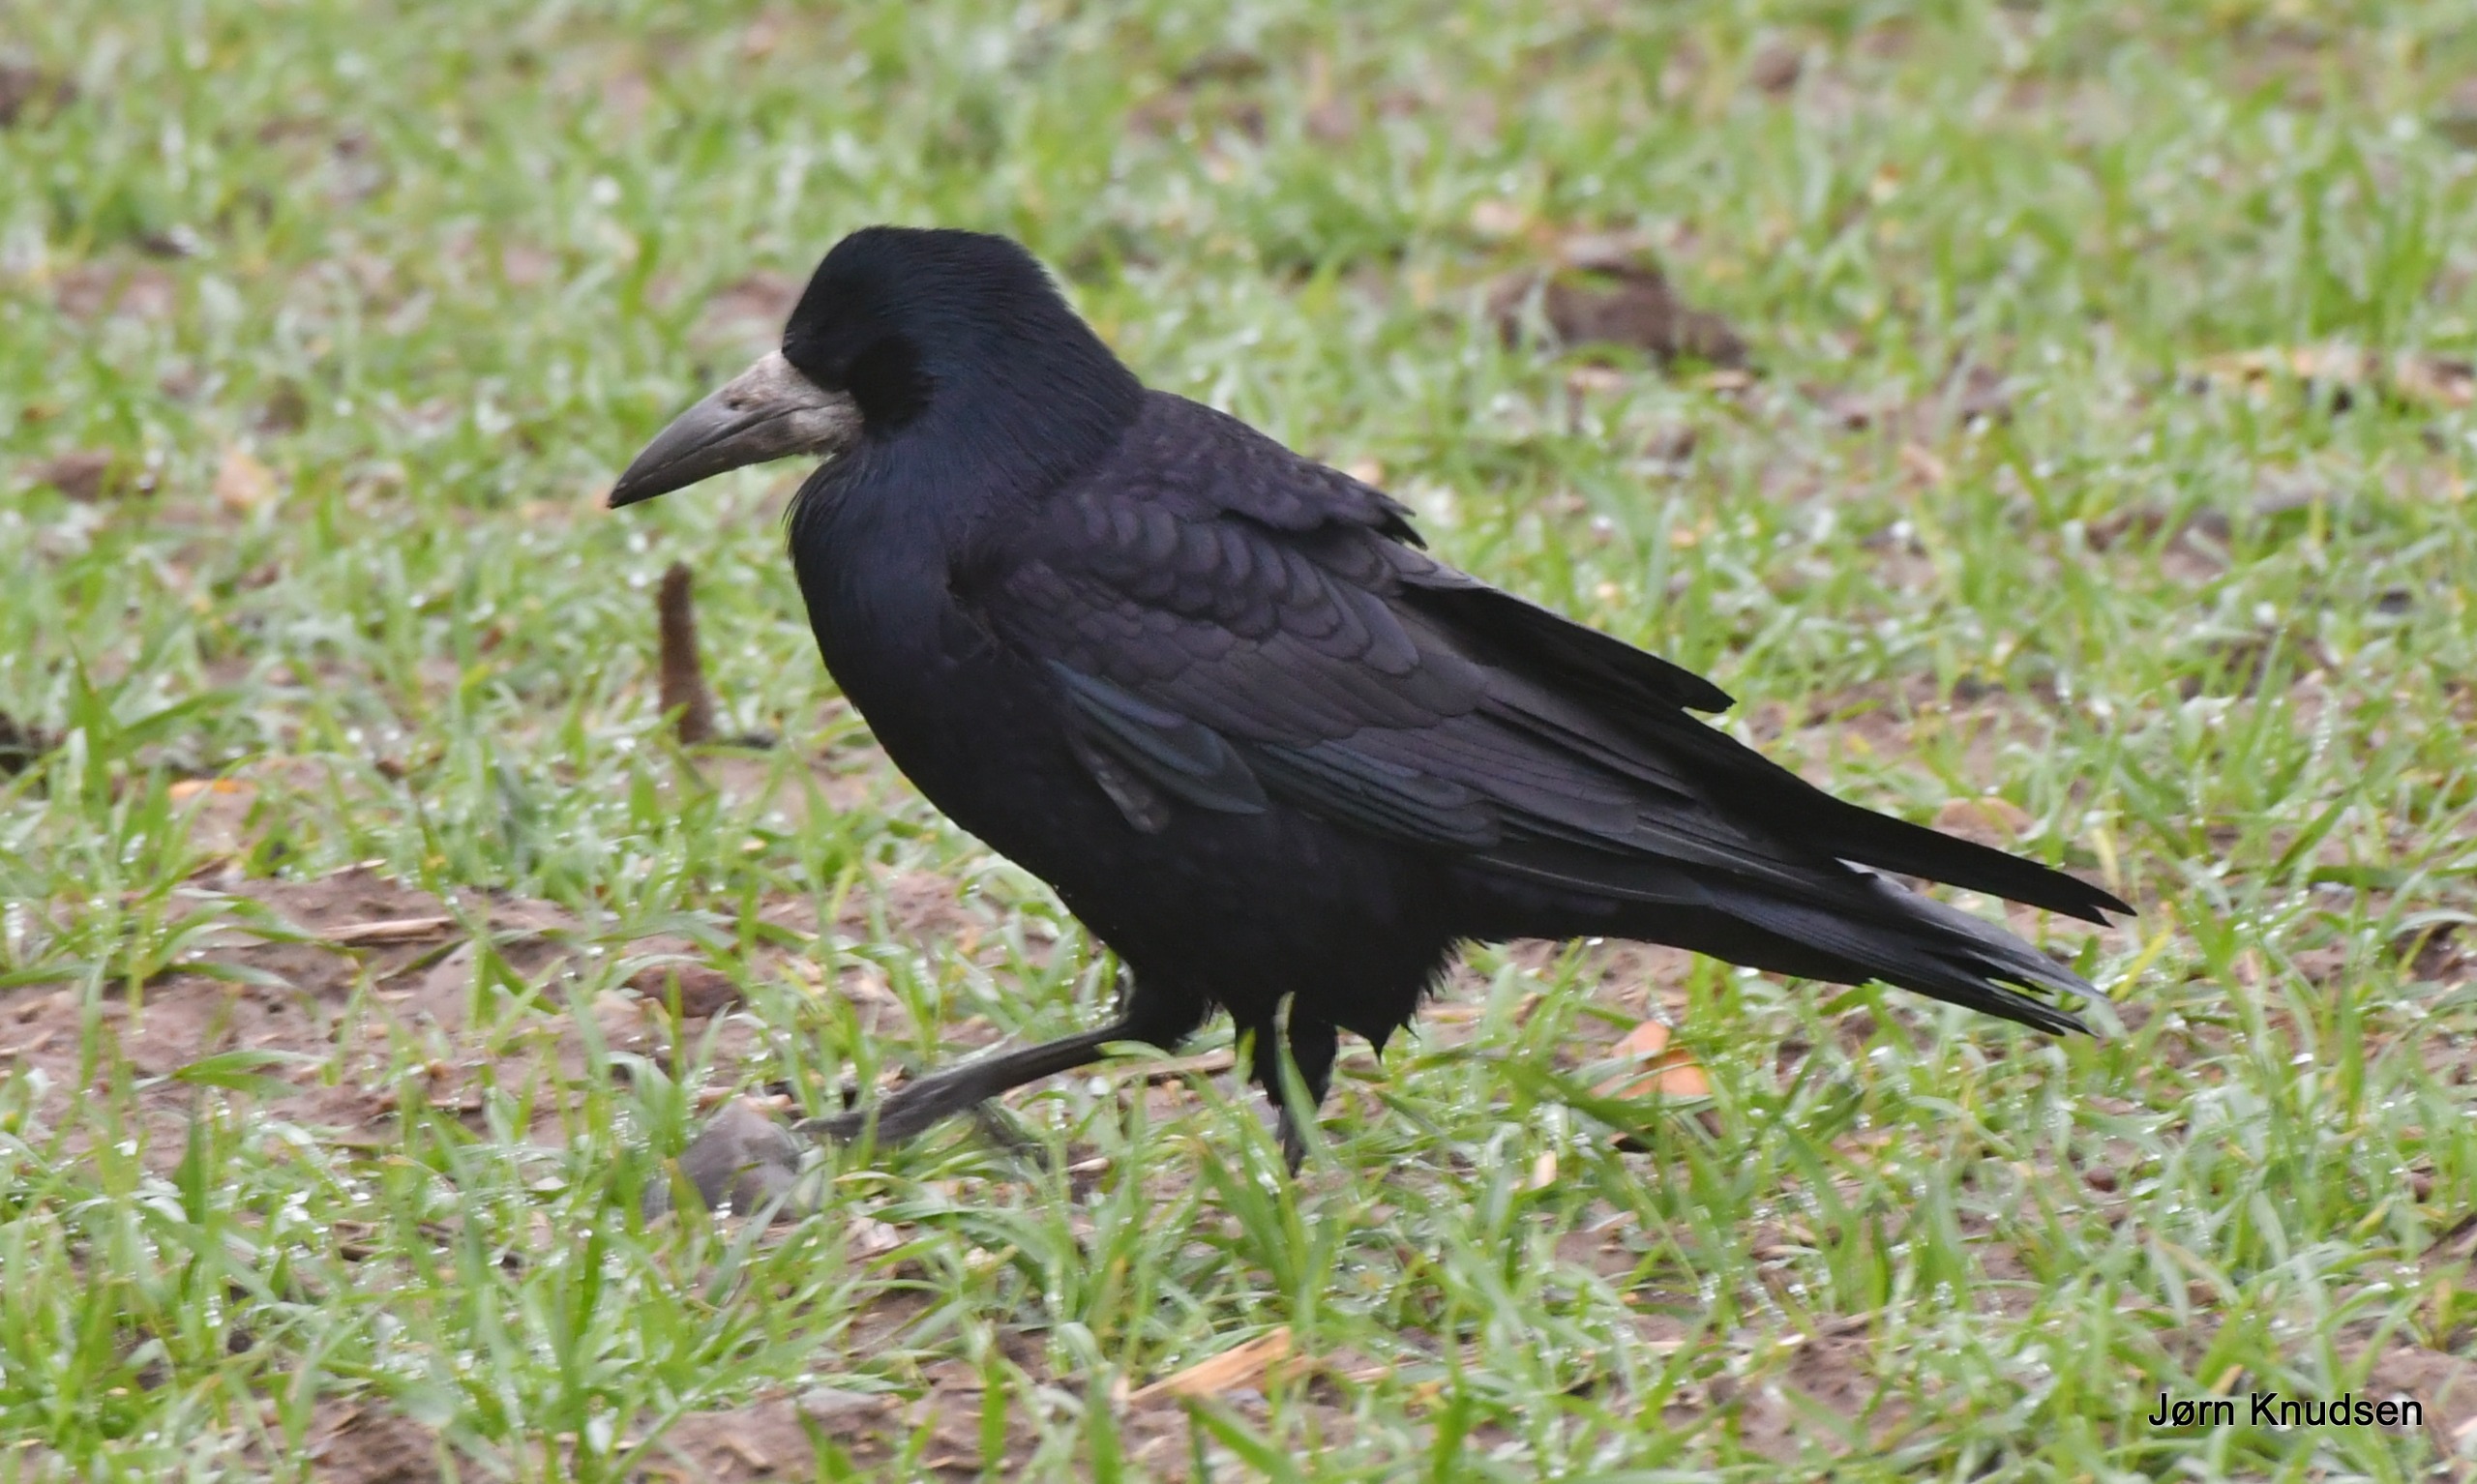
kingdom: Animalia
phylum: Chordata
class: Aves
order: Passeriformes
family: Corvidae
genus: Corvus
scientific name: Corvus frugilegus
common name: Råge
